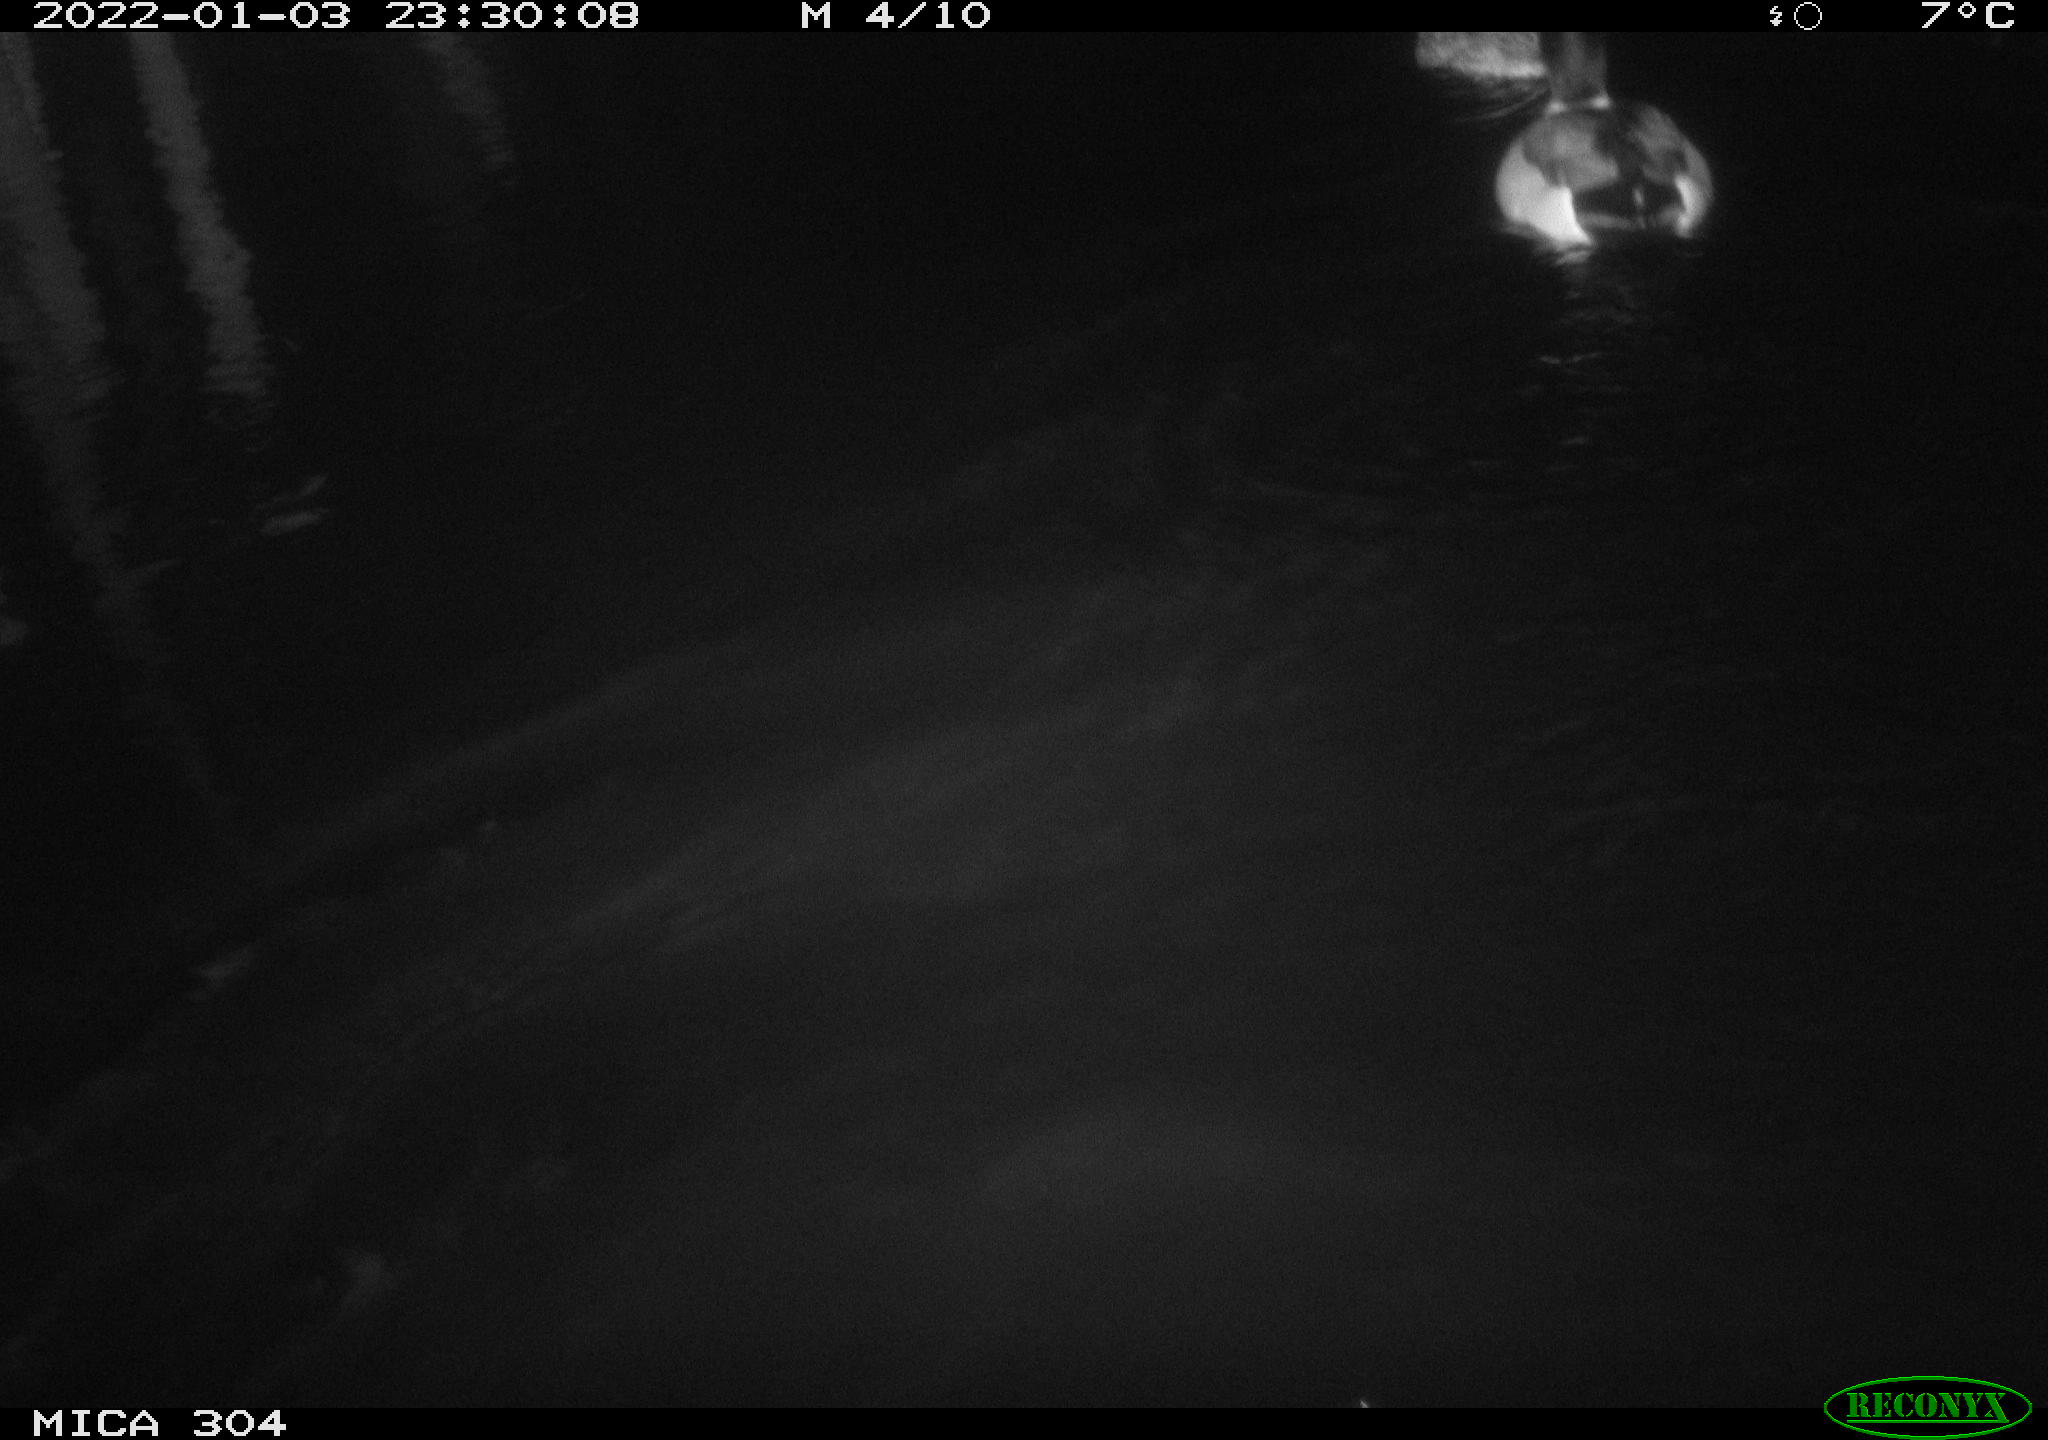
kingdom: Animalia
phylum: Chordata
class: Aves
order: Anseriformes
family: Anatidae
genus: Anas
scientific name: Anas
